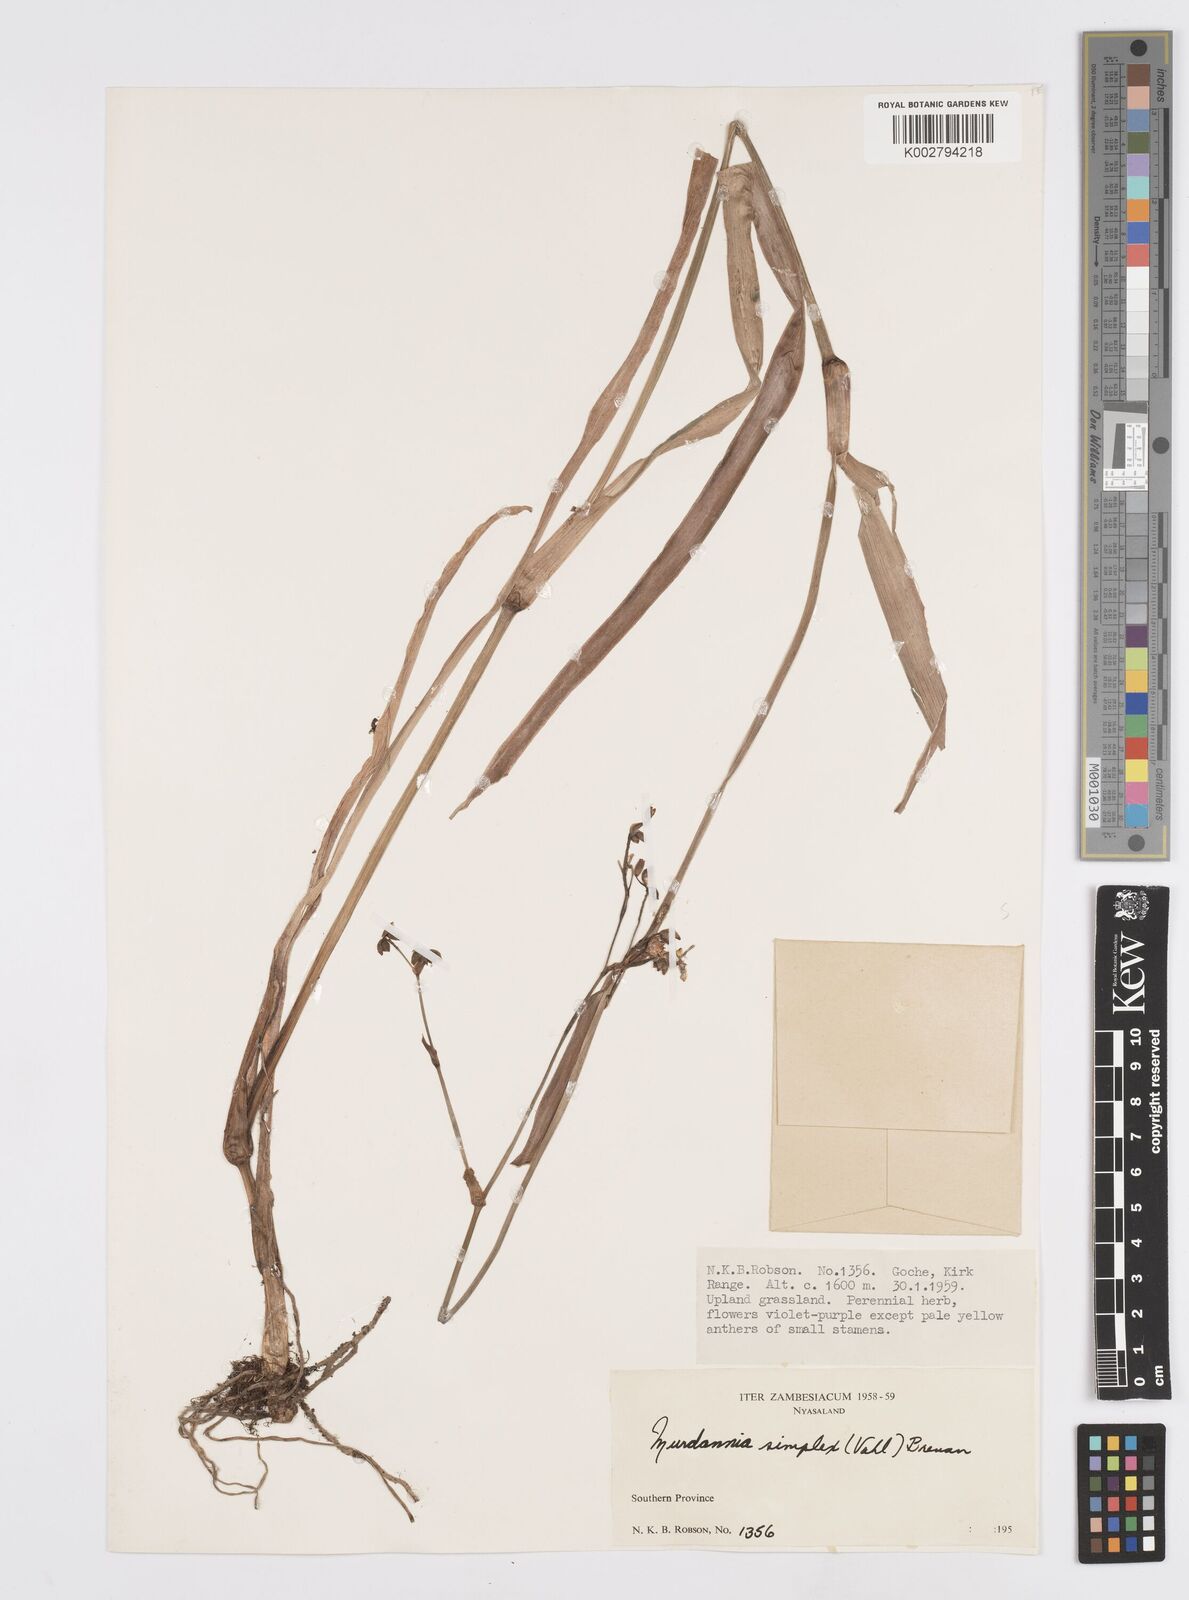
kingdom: Plantae
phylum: Tracheophyta
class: Liliopsida
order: Commelinales
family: Commelinaceae
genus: Murdannia
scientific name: Murdannia simplex
